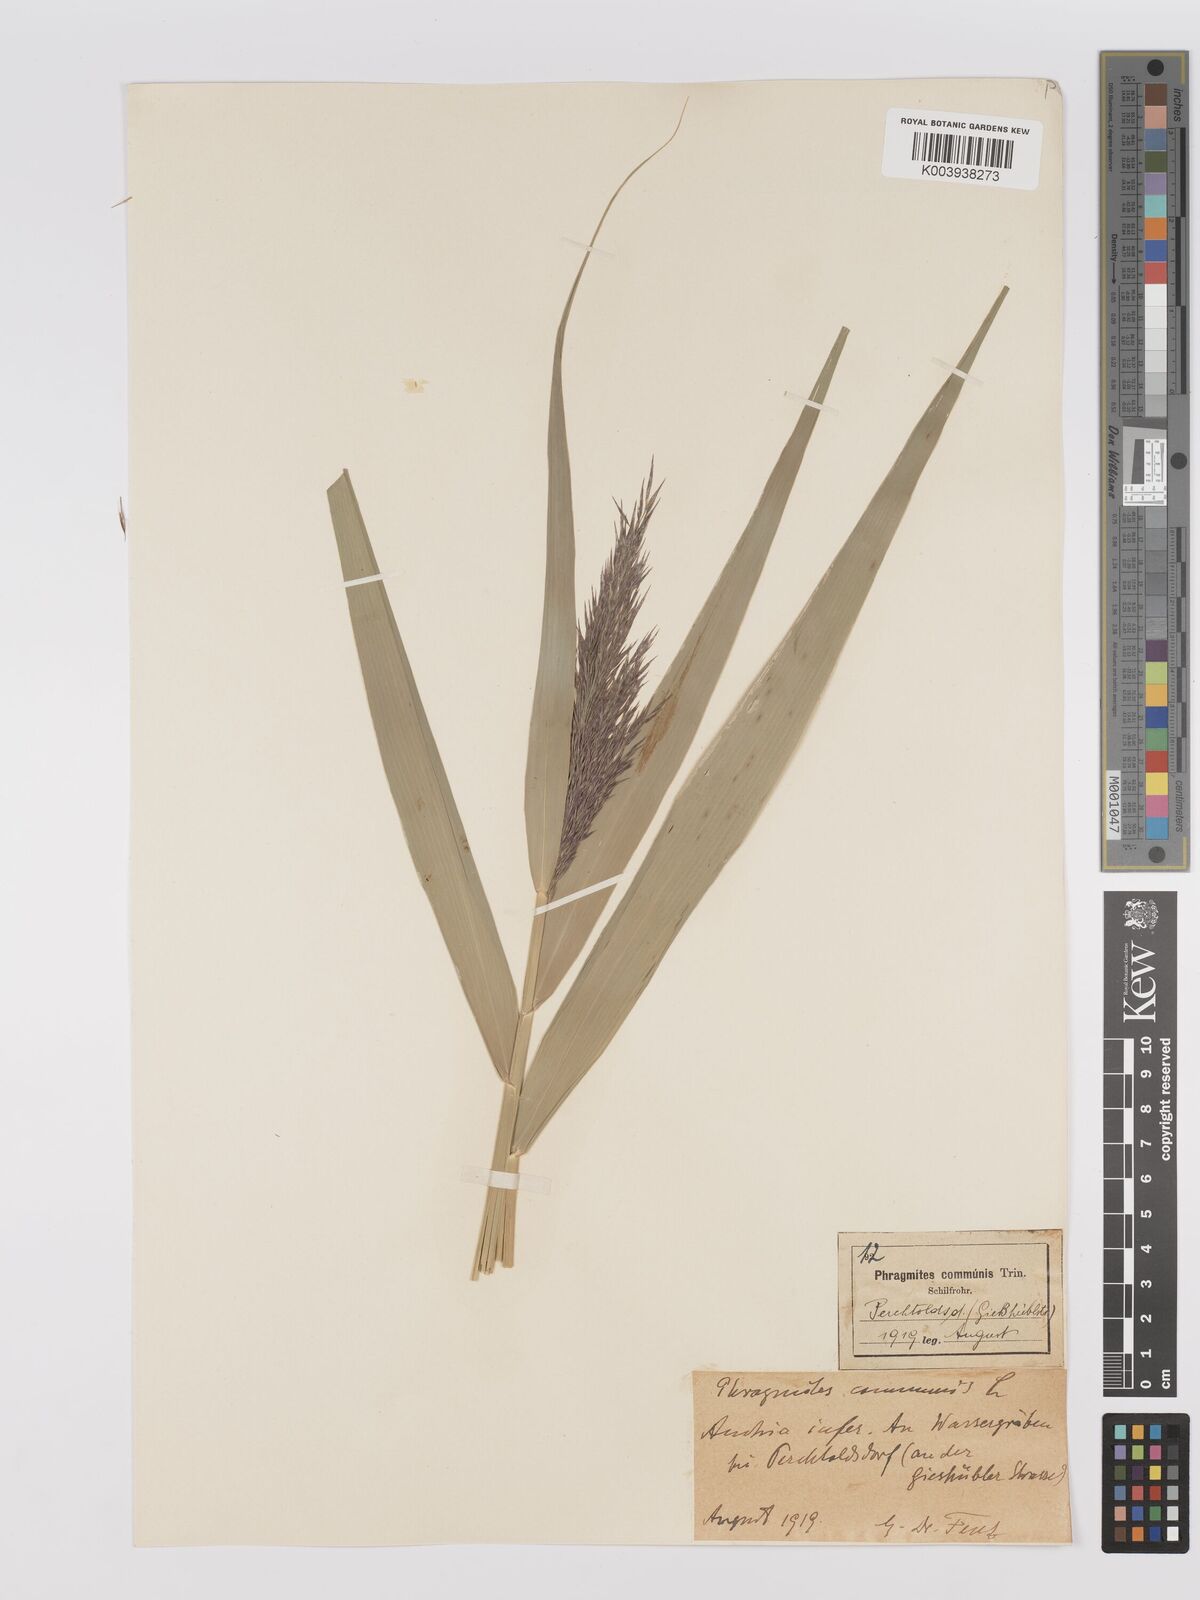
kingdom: Plantae
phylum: Tracheophyta
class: Liliopsida
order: Poales
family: Poaceae
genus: Phragmites
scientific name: Phragmites australis
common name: Common reed
